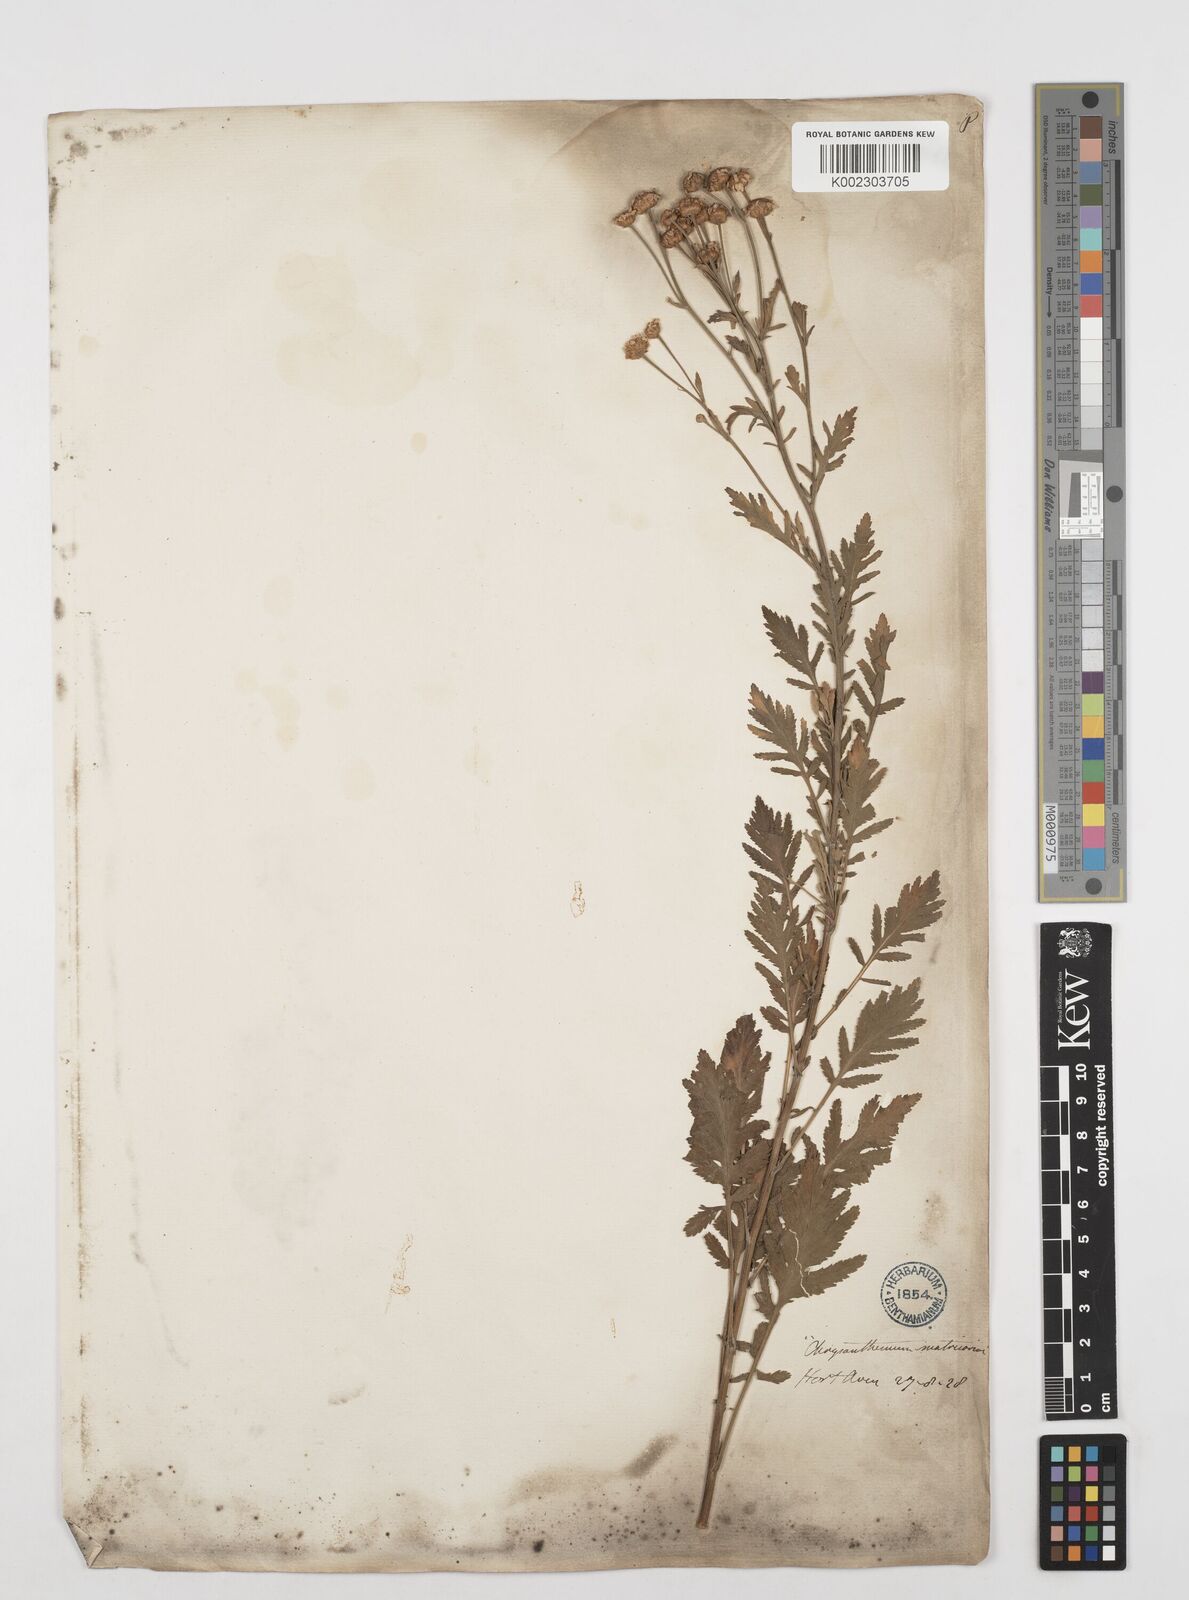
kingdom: Plantae
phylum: Tracheophyta
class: Magnoliopsida
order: Asterales
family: Asteraceae
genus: Oncosiphon
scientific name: Oncosiphon suffruticosus
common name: Shrubby mayweed
